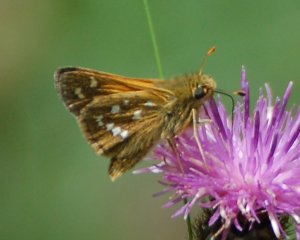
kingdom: Animalia
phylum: Arthropoda
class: Insecta
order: Lepidoptera
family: Hesperiidae
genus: Hesperia
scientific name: Hesperia comma
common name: Common Branded Skipper
